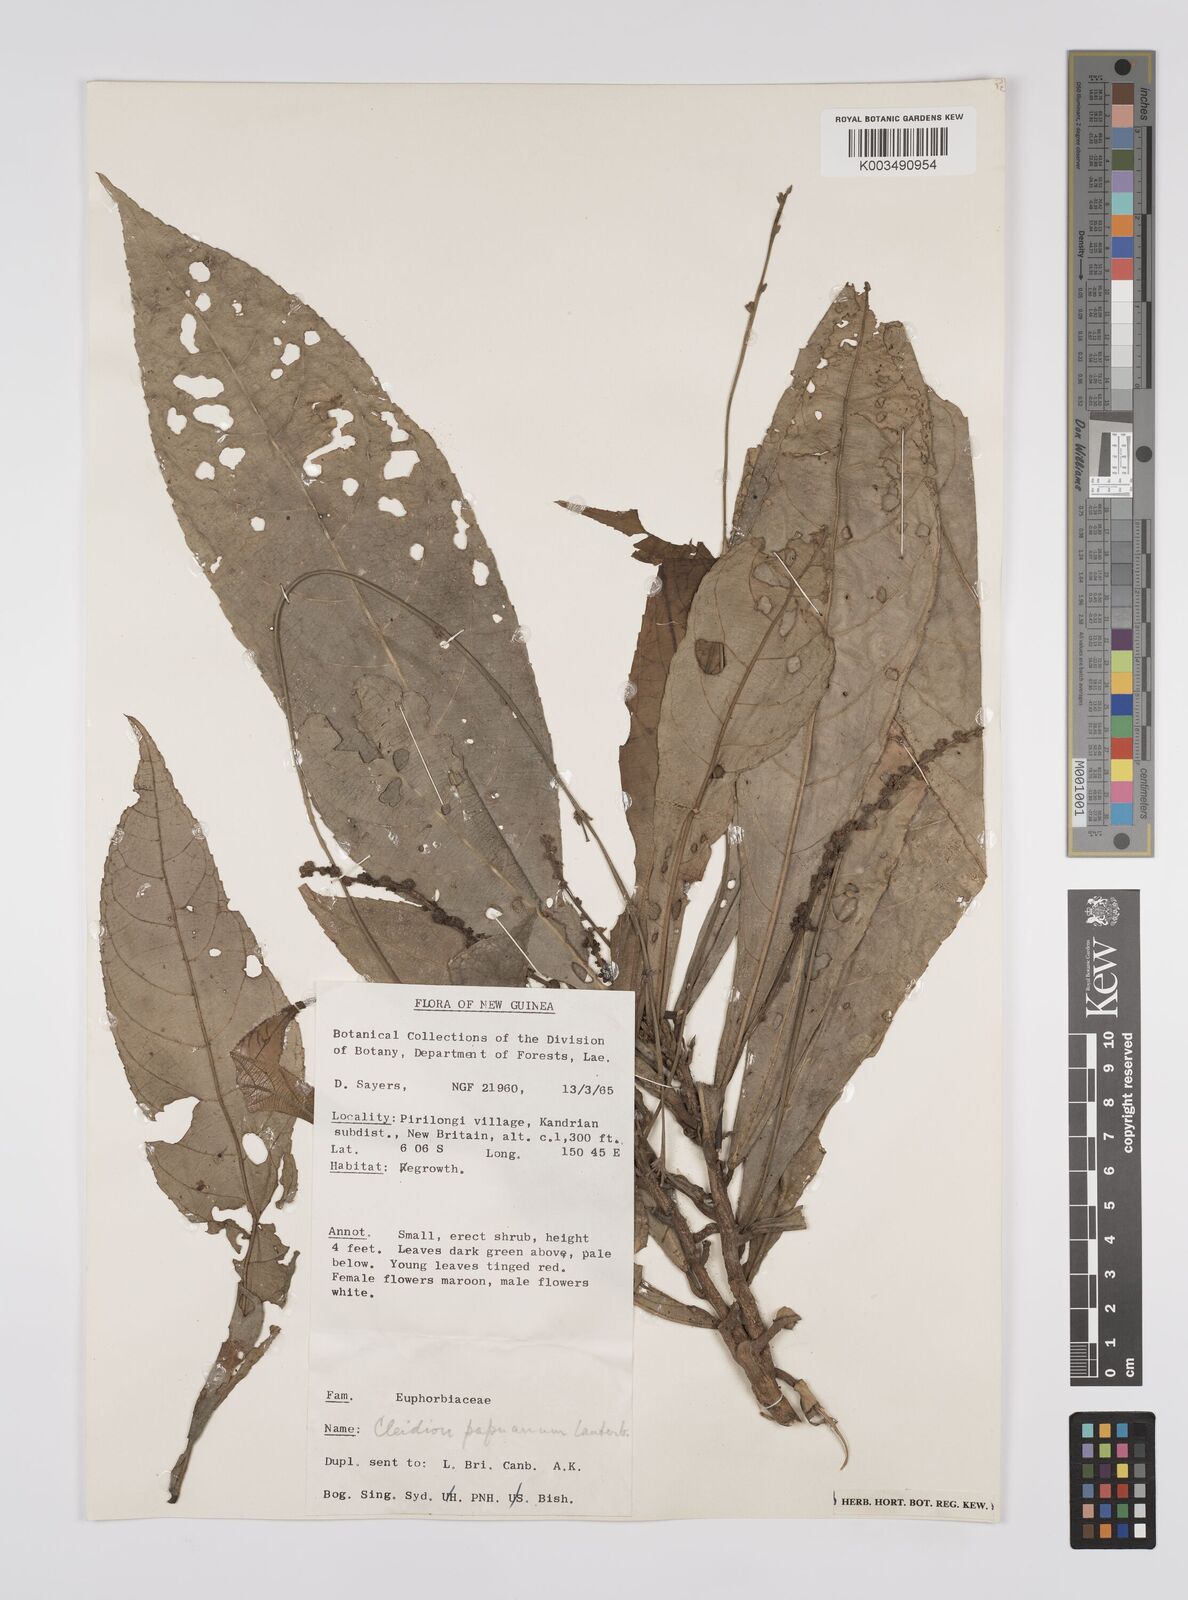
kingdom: Plantae
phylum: Tracheophyta
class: Magnoliopsida
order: Malpighiales
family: Euphorbiaceae
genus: Cleidion
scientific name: Cleidion papuanum
